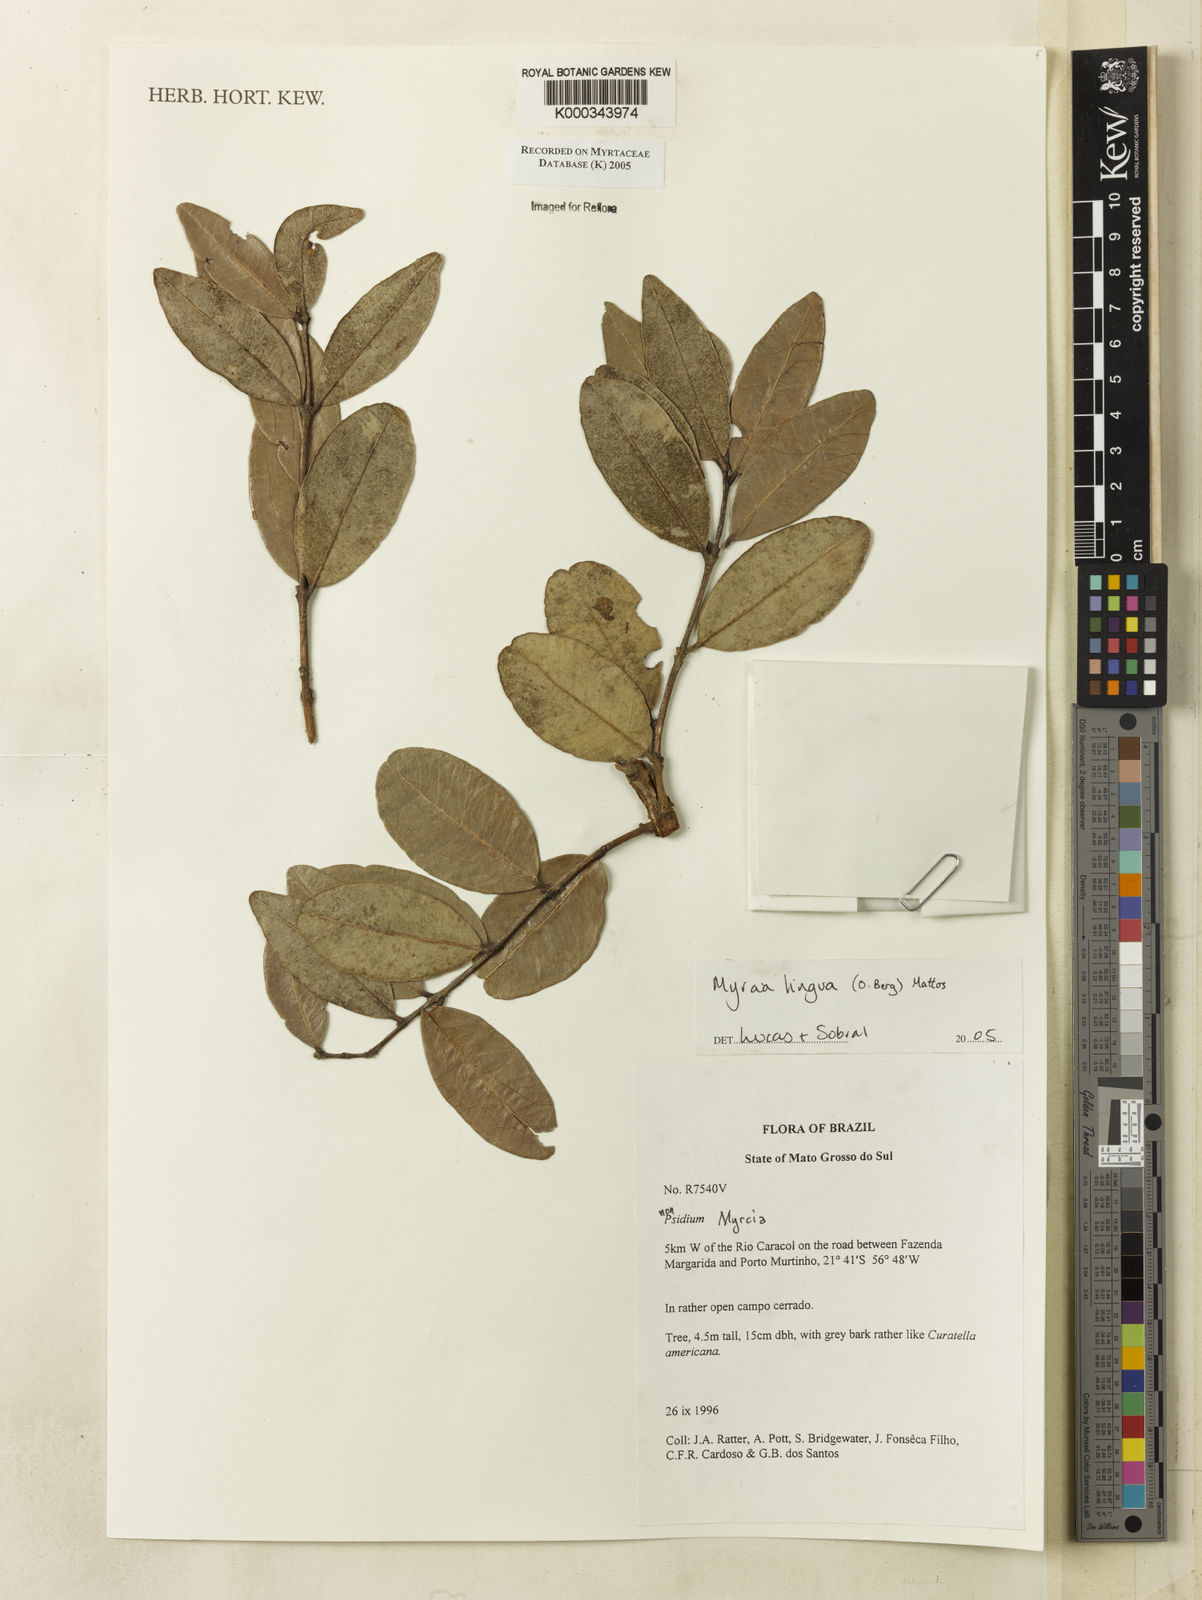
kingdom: Plantae
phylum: Tracheophyta
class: Magnoliopsida
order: Myrtales
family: Myrtaceae
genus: Myrcia
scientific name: Myrcia guianensis
